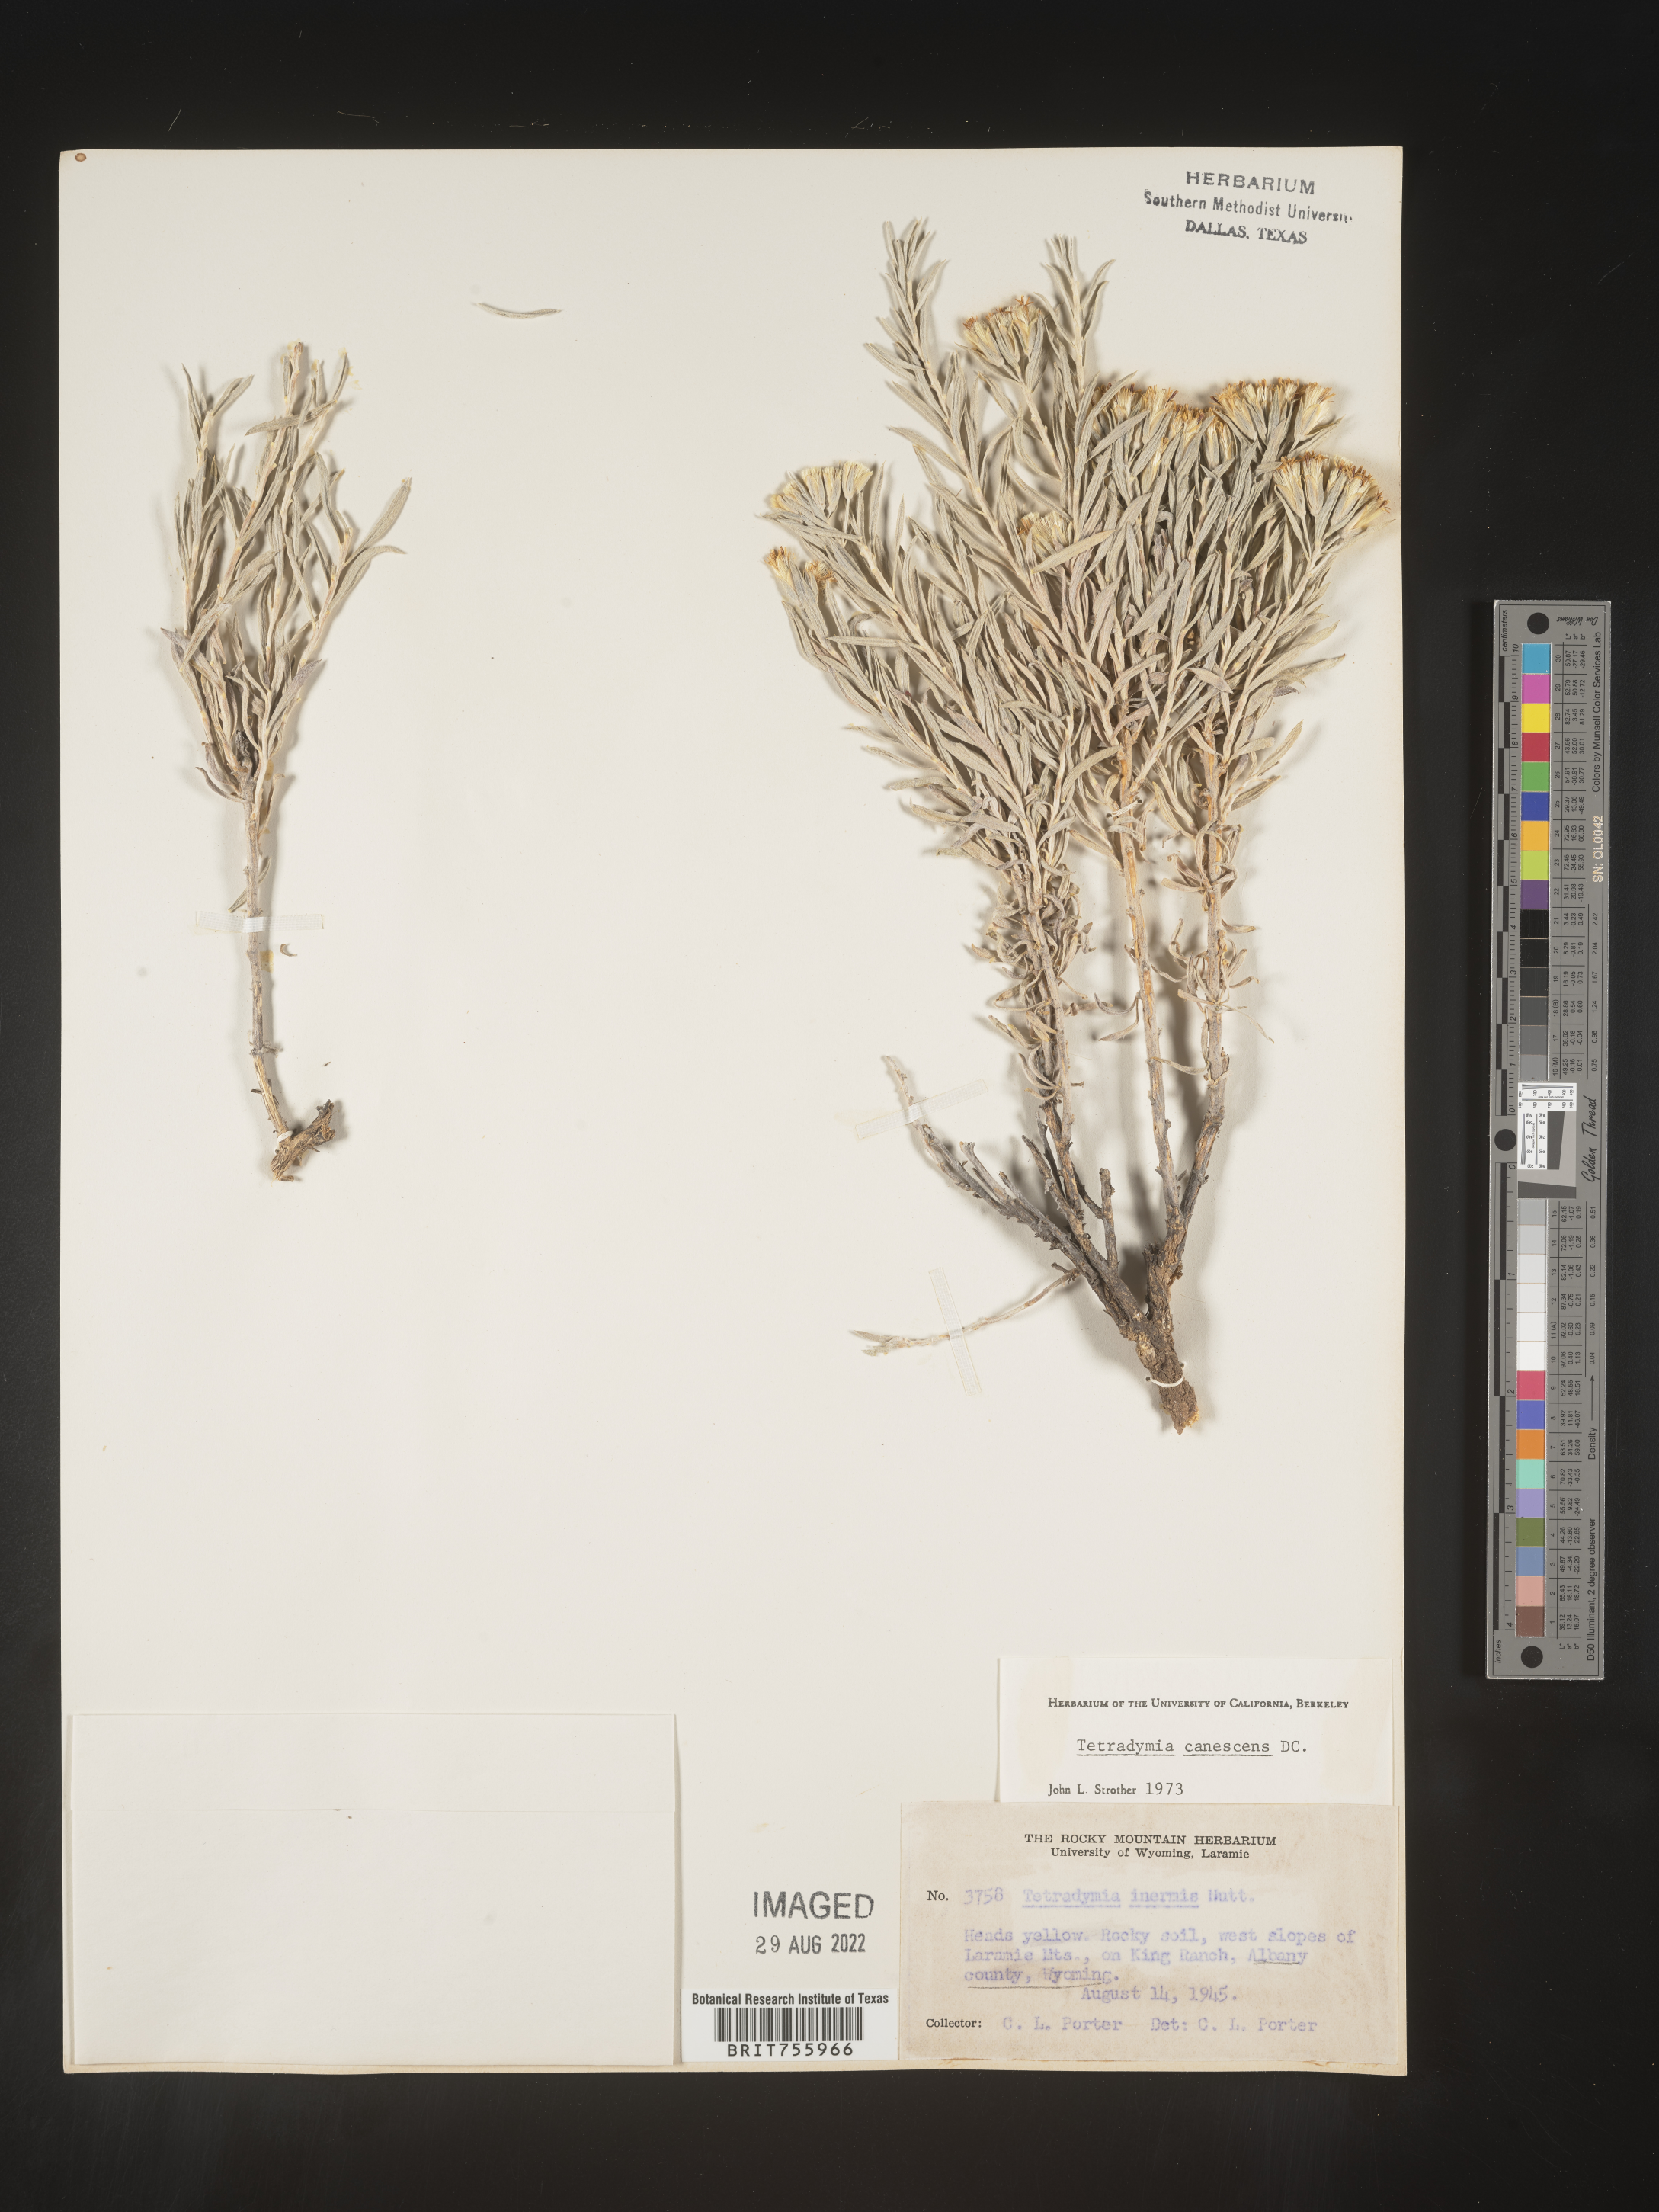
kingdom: Plantae
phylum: Tracheophyta
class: Magnoliopsida
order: Asterales
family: Asteraceae
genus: Tetradymia
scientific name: Tetradymia canescens
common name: Spineless horsebrush
